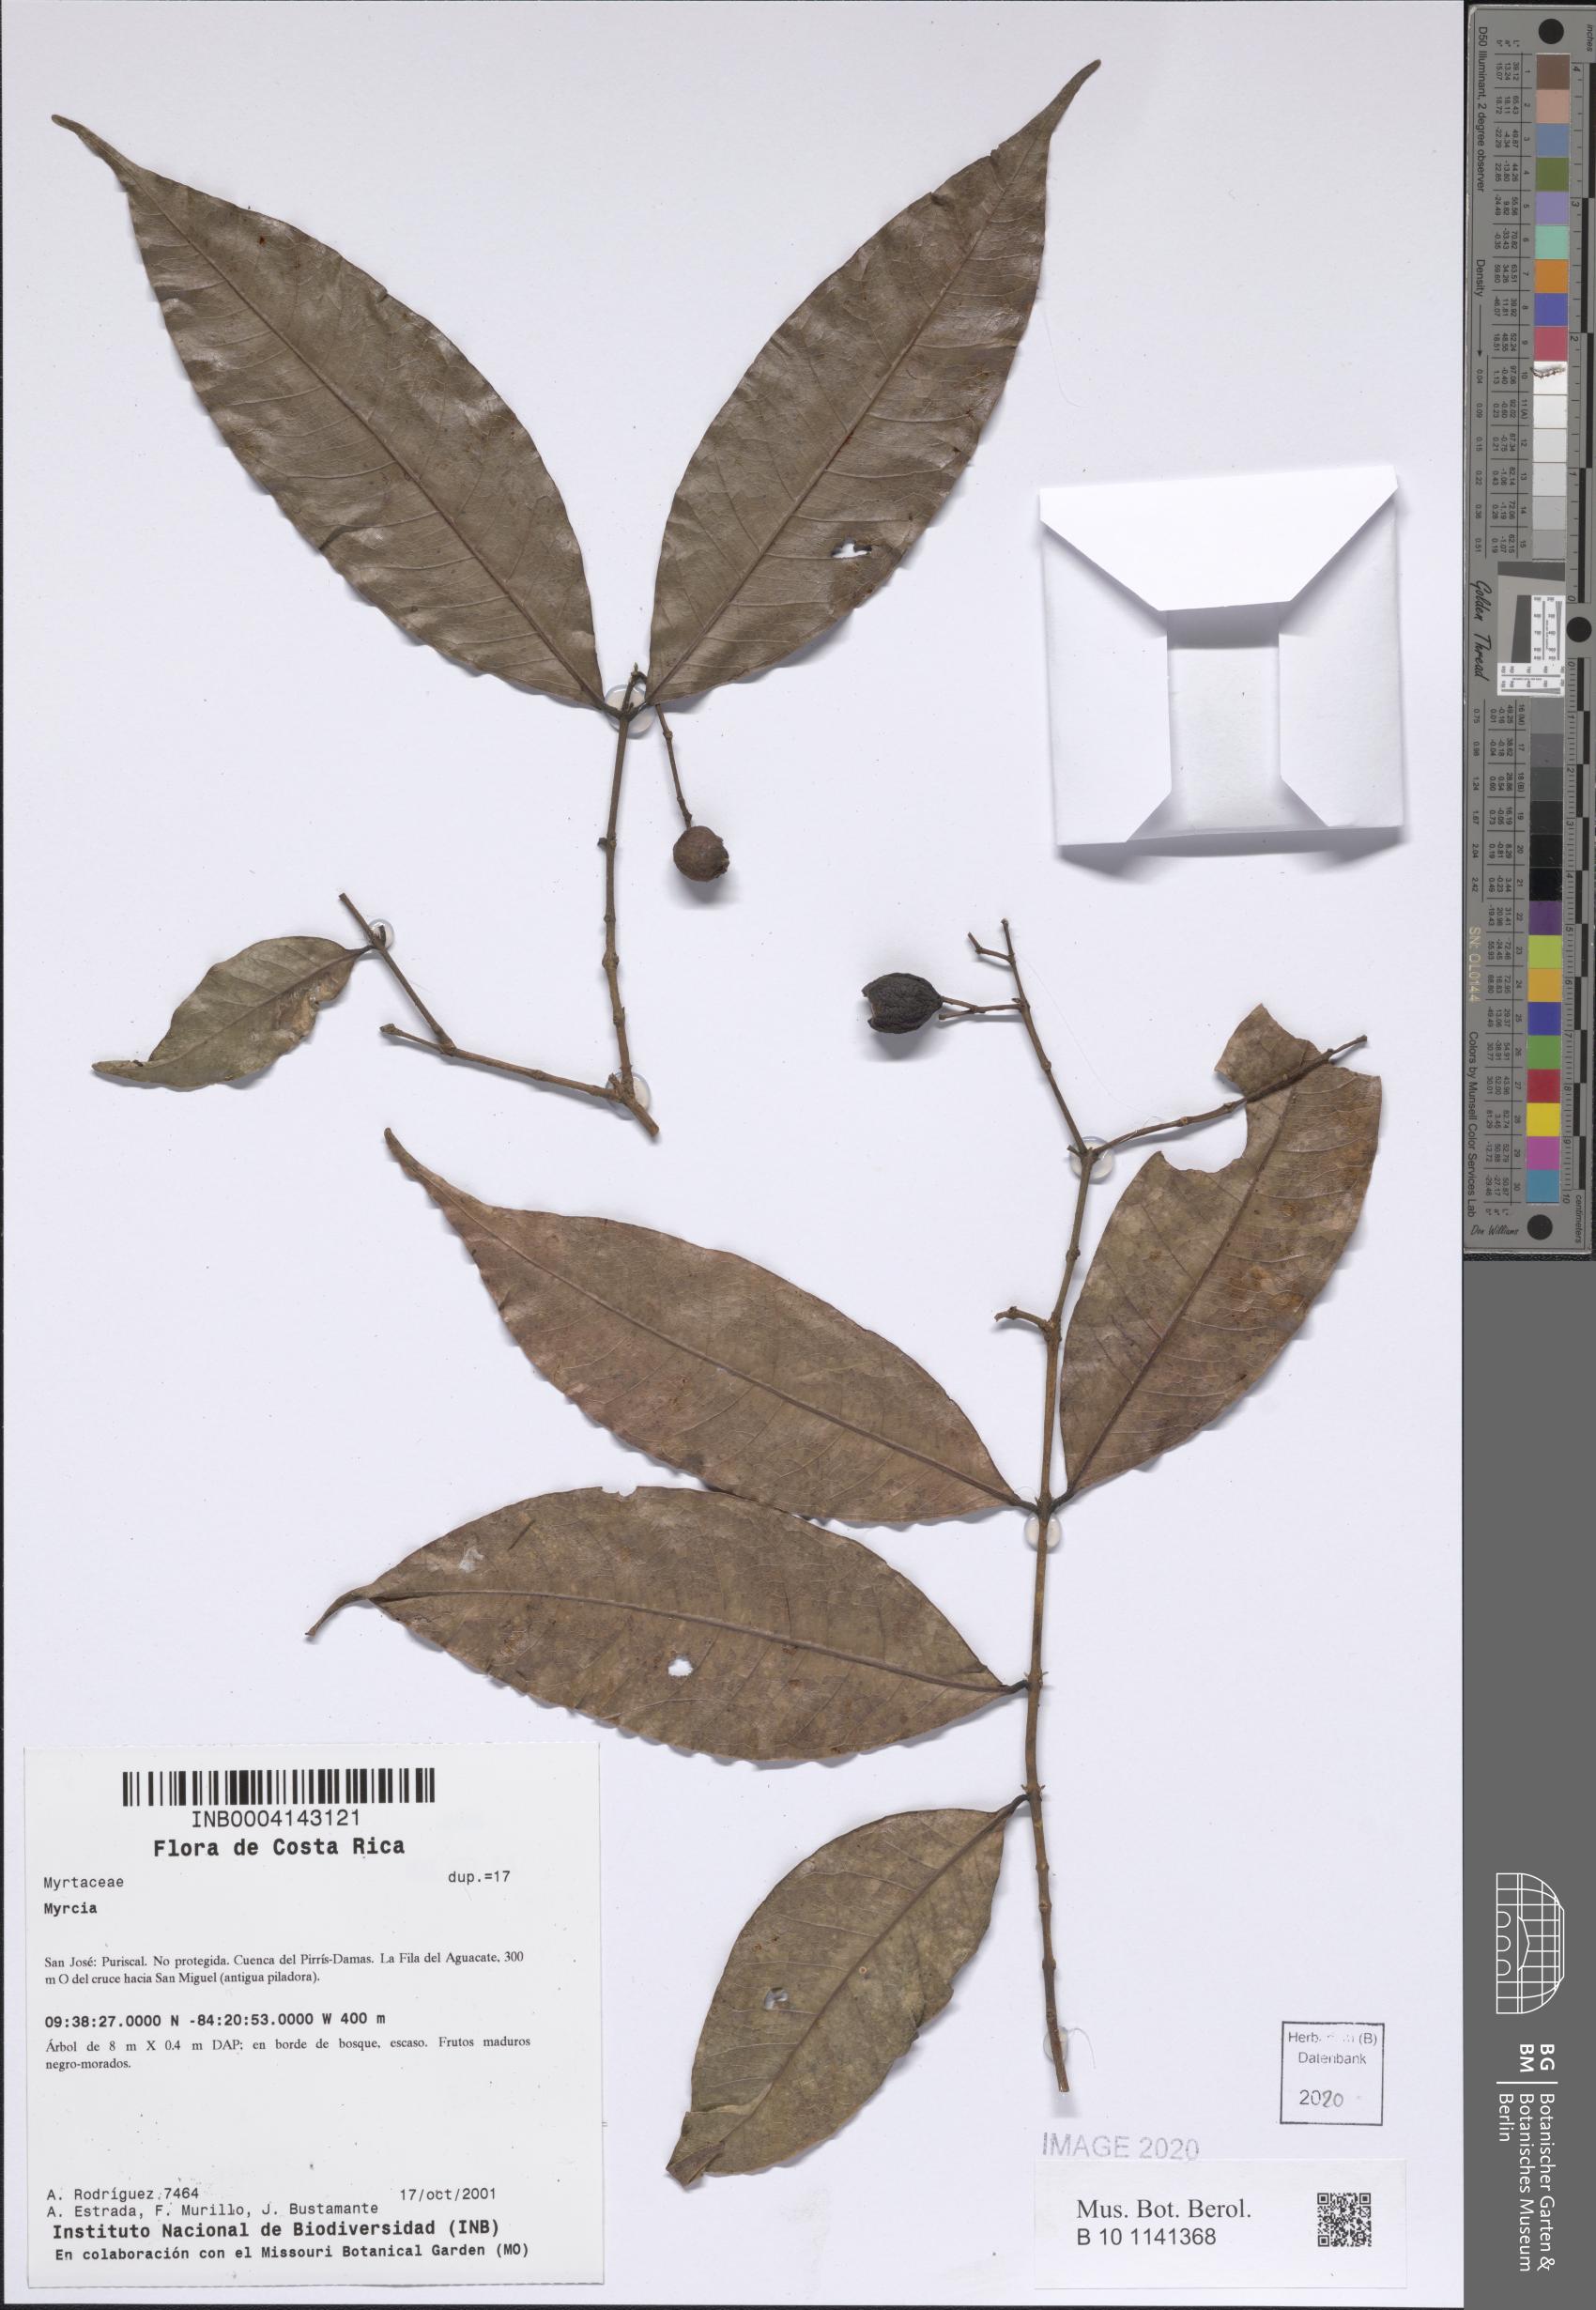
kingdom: Plantae
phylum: Tracheophyta
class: Magnoliopsida
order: Myrtales
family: Myrtaceae
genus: Myrcia
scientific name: Myrcia
